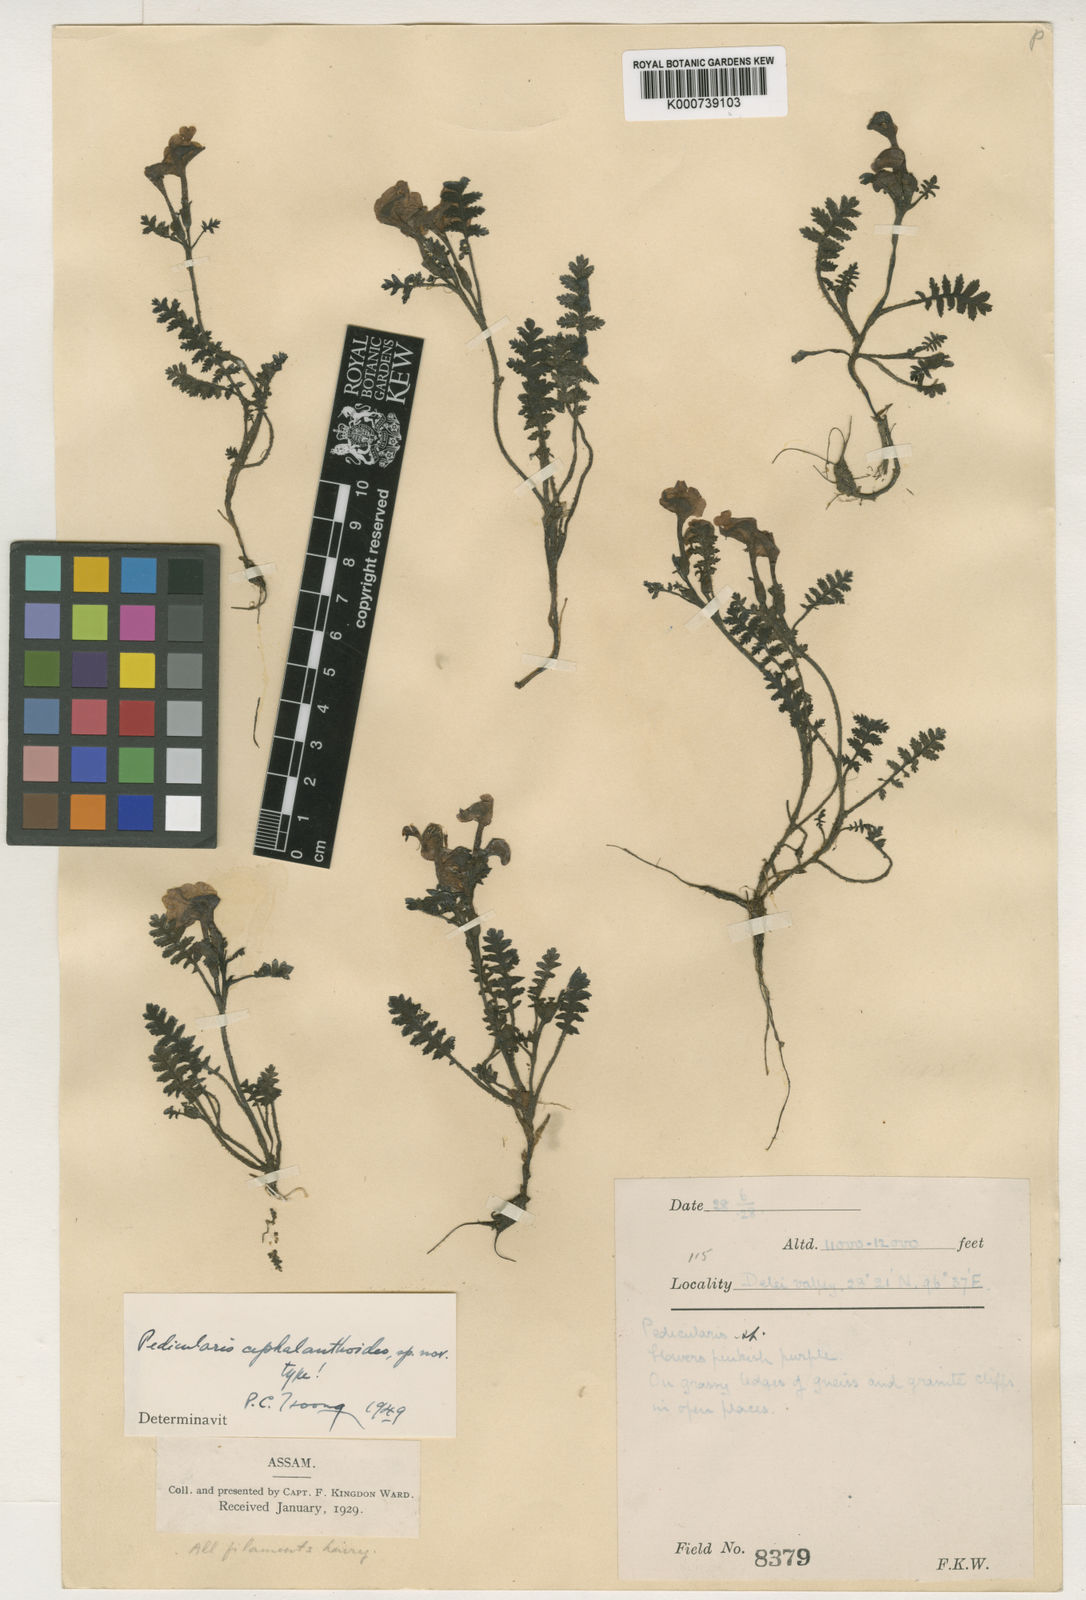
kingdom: Plantae
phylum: Tracheophyta
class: Magnoliopsida
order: Lamiales
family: Orobanchaceae
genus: Pedicularis
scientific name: Pedicularis
